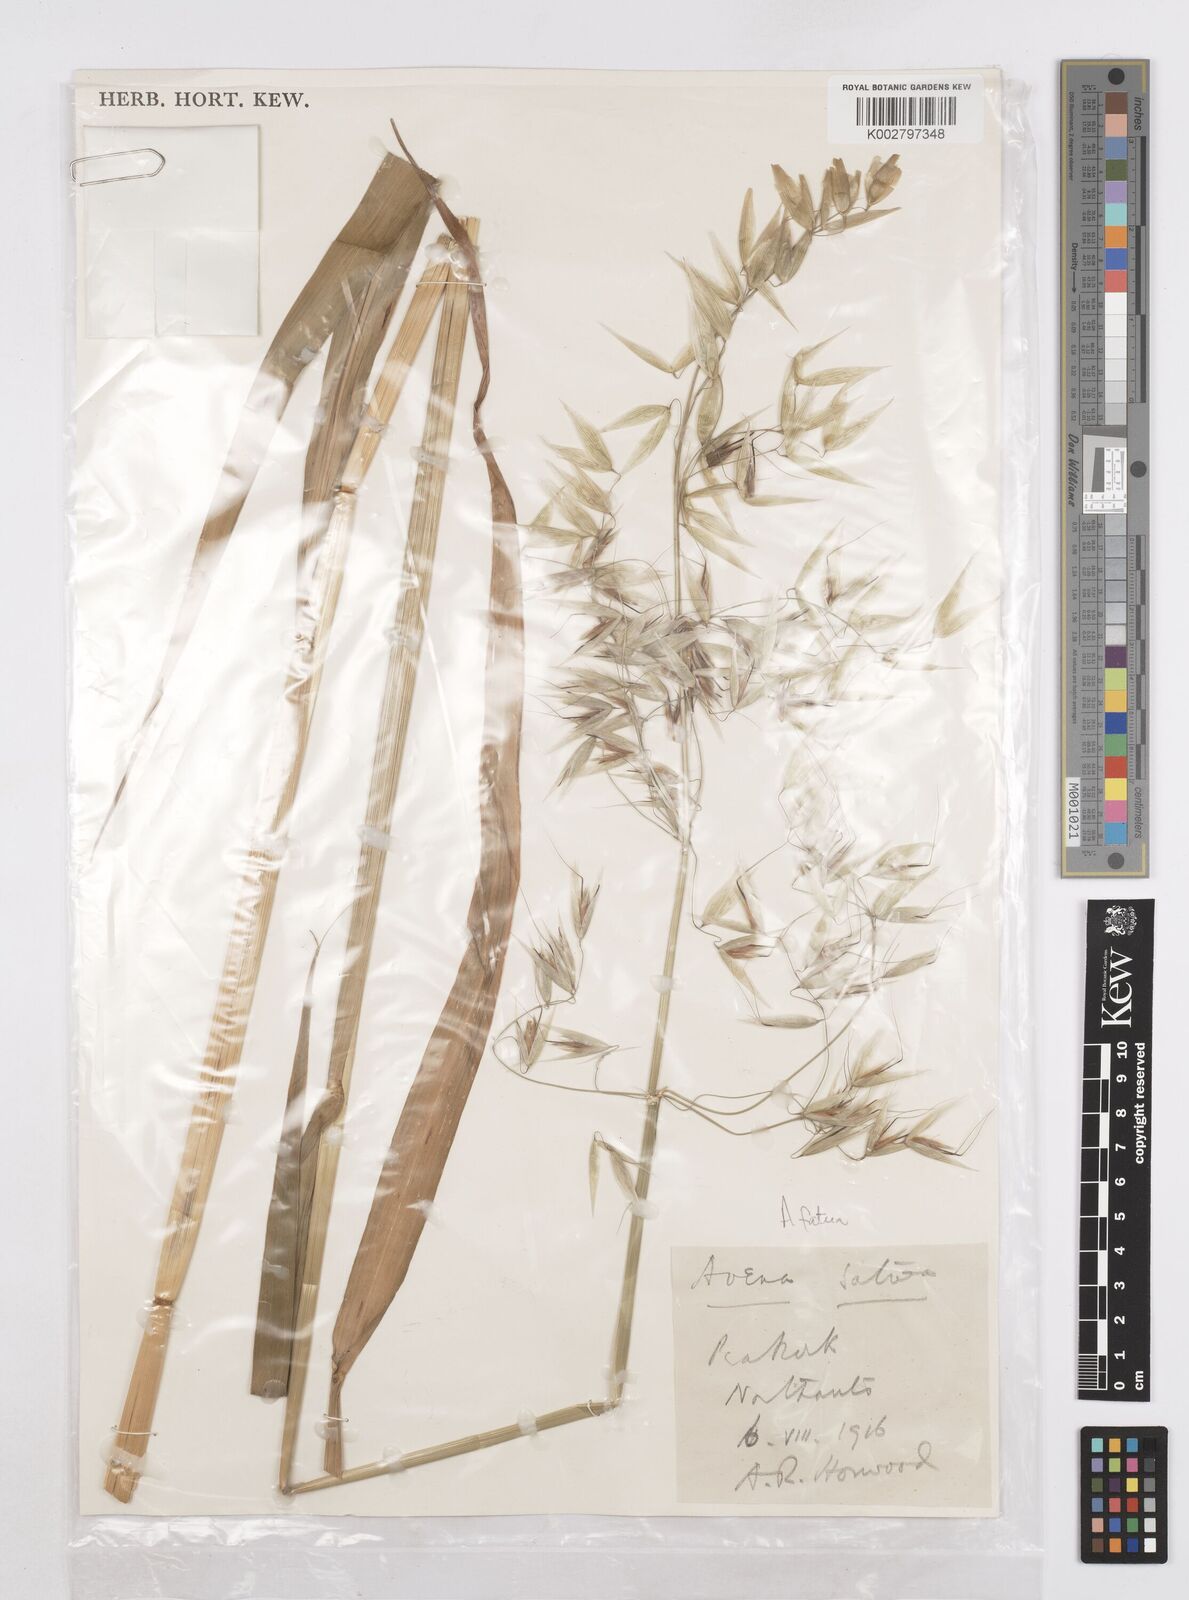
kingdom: Plantae
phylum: Tracheophyta
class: Liliopsida
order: Poales
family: Poaceae
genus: Avena
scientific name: Avena fatua
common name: Wild oat
